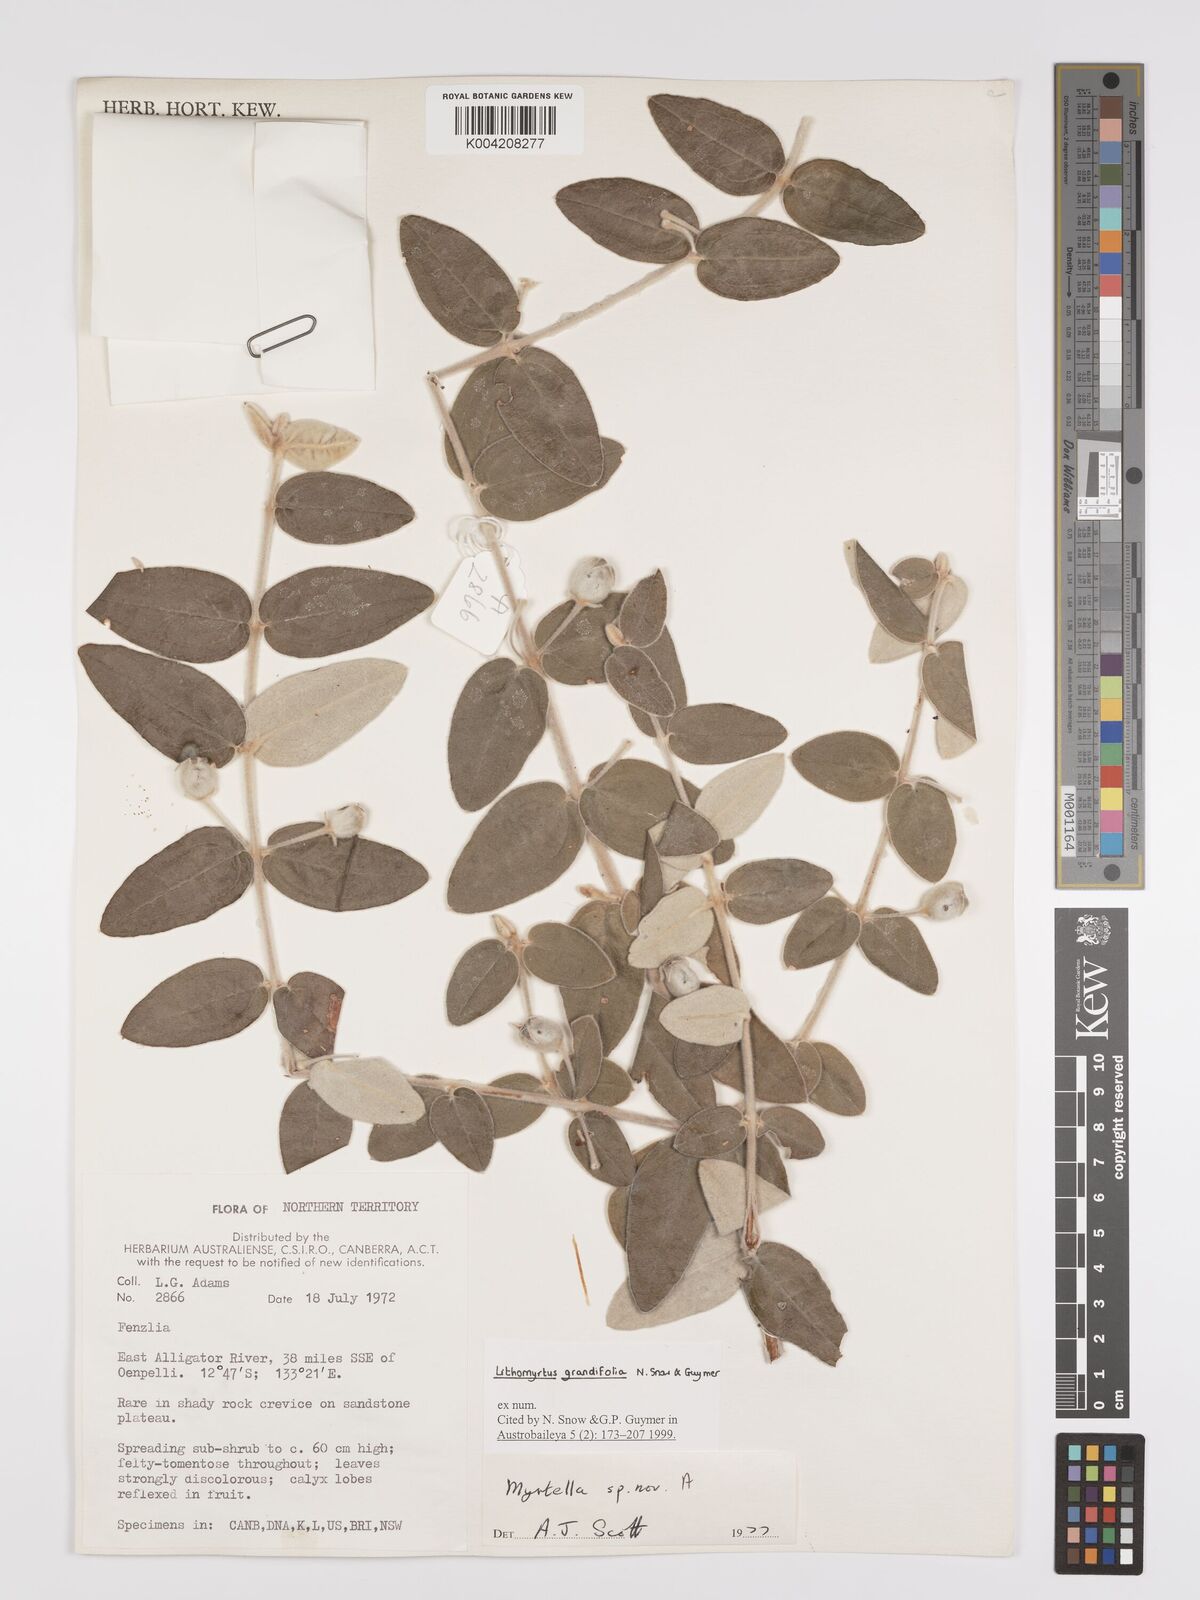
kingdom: Plantae
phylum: Tracheophyta
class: Magnoliopsida
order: Myrtales
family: Myrtaceae
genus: Lithomyrtus
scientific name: Lithomyrtus grandifolia
